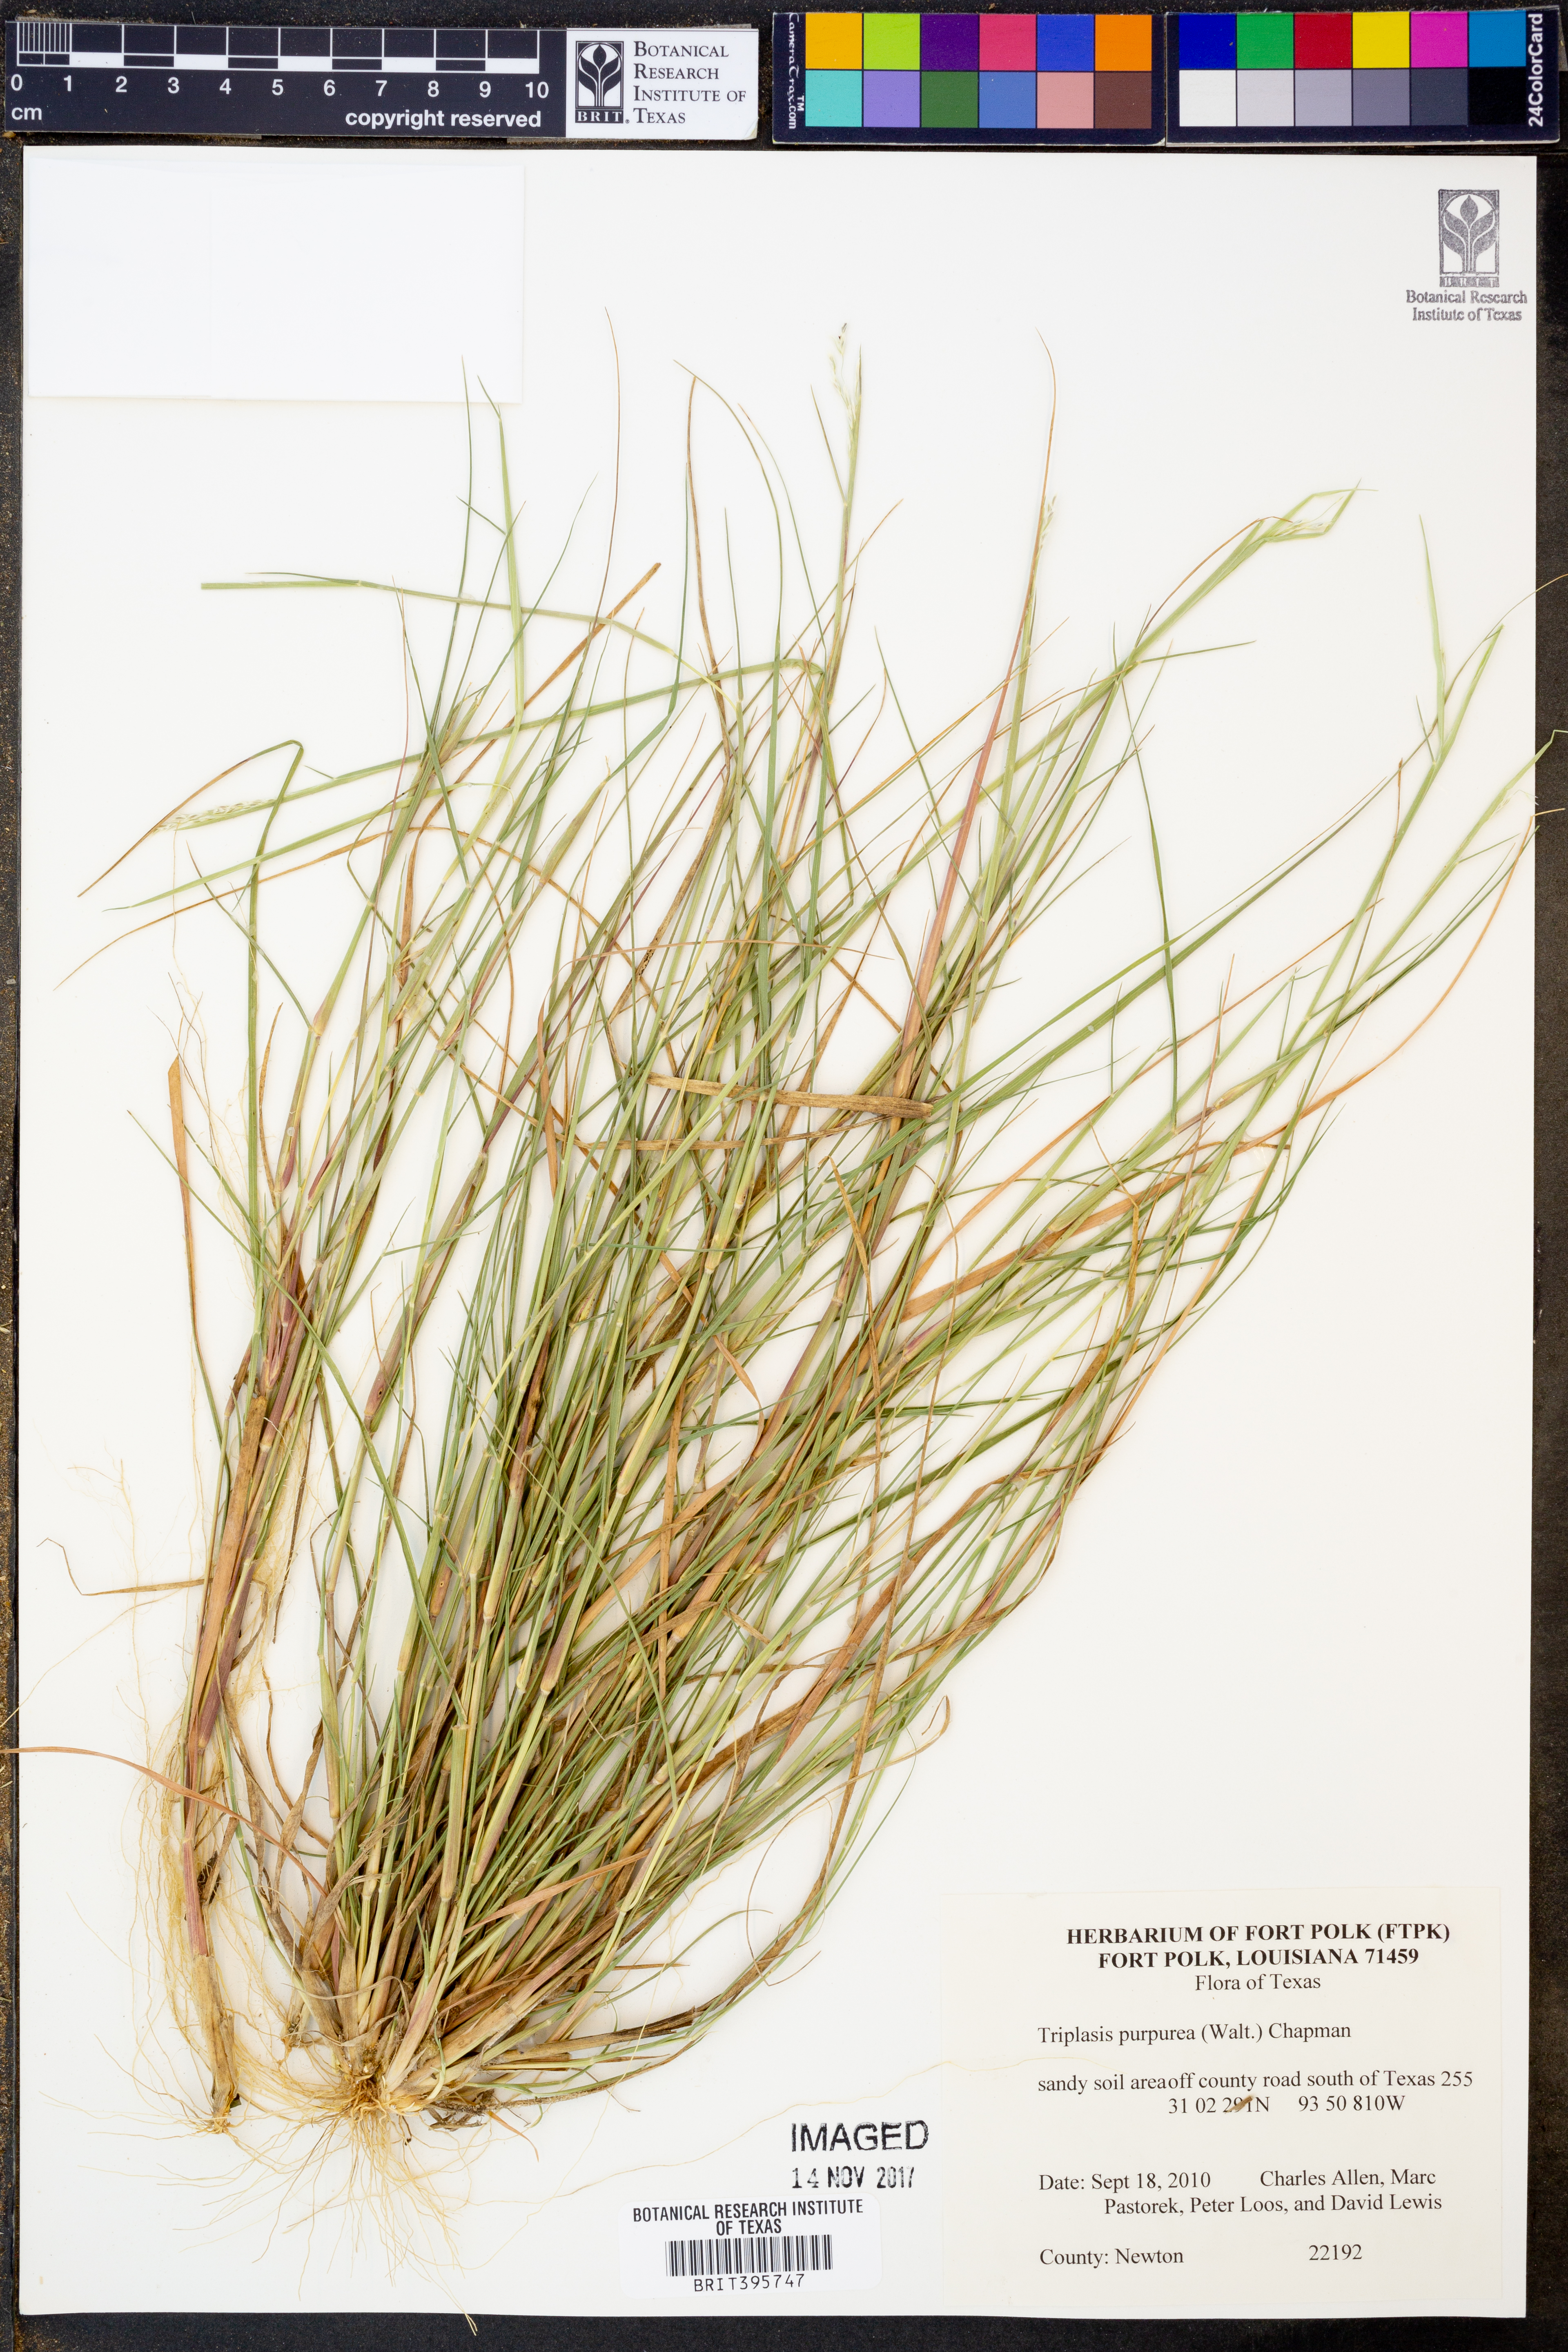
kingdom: Plantae
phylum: Tracheophyta
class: Liliopsida
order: Poales
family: Poaceae
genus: Triplasis
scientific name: Triplasis purpurea
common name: Purple sand grass
